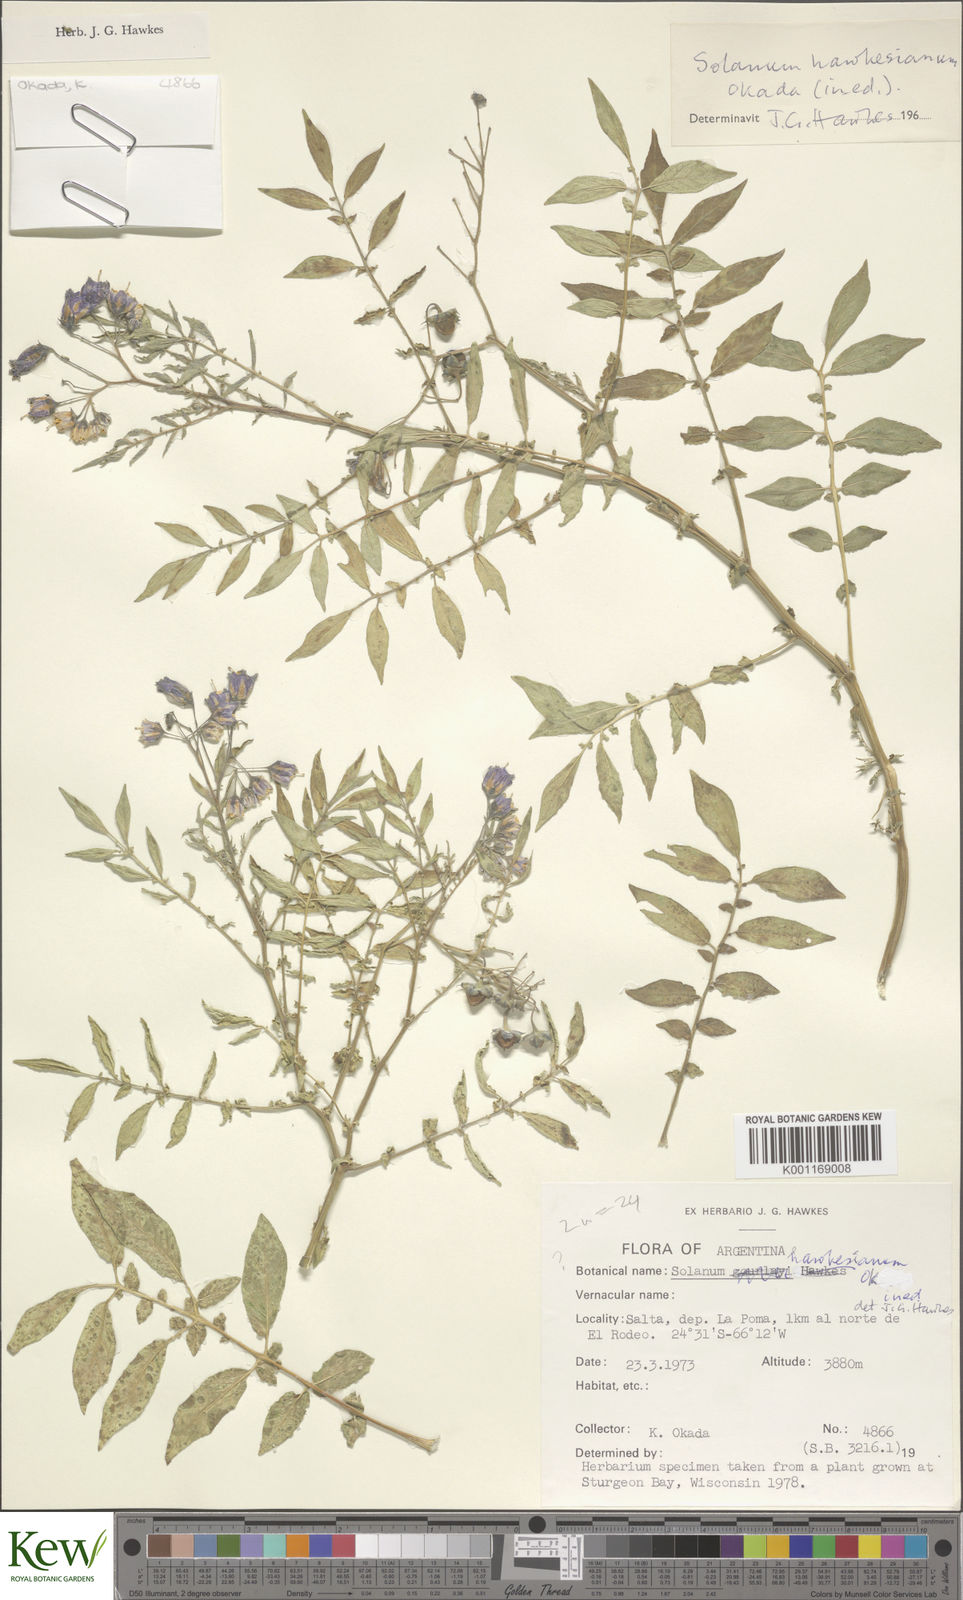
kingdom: Plantae
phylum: Tracheophyta
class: Magnoliopsida
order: Solanales
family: Solanaceae
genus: Solanum
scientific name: Solanum
